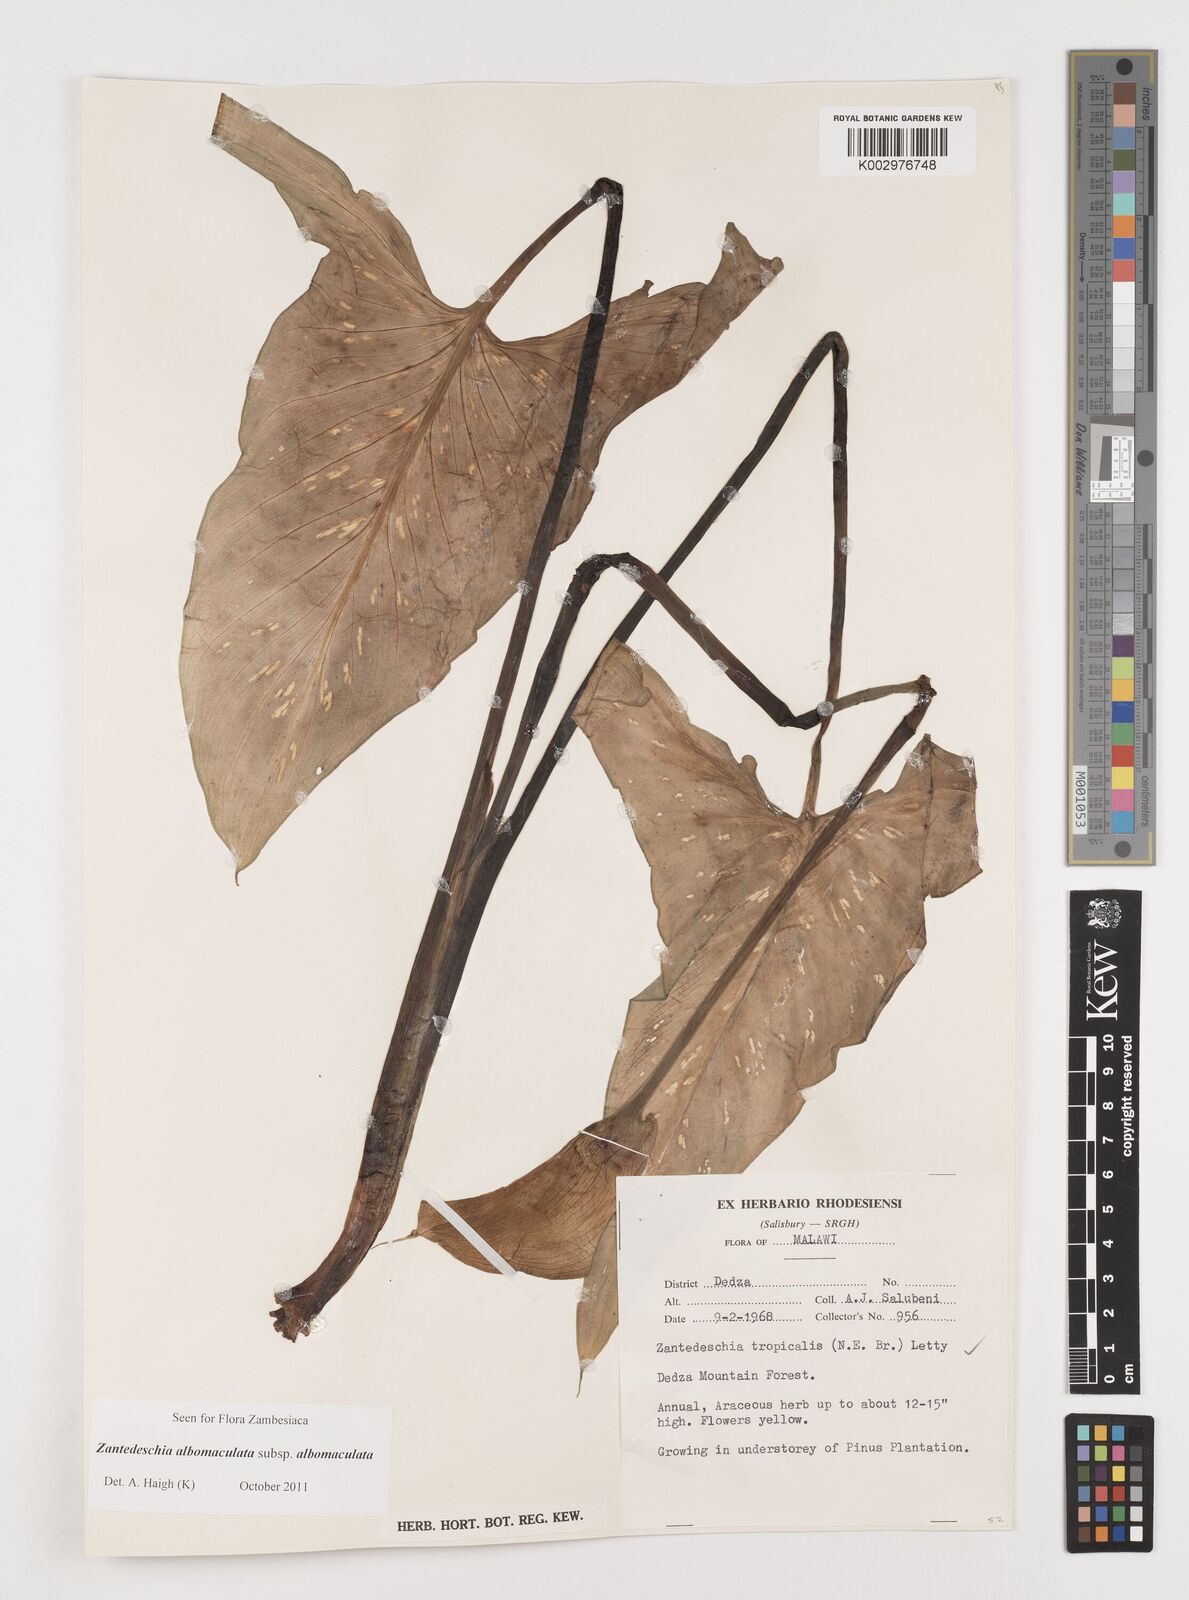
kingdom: Plantae
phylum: Tracheophyta
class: Liliopsida
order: Alismatales
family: Araceae
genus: Zantedeschia
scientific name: Zantedeschia albomaculata
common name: Spotted calla lily
